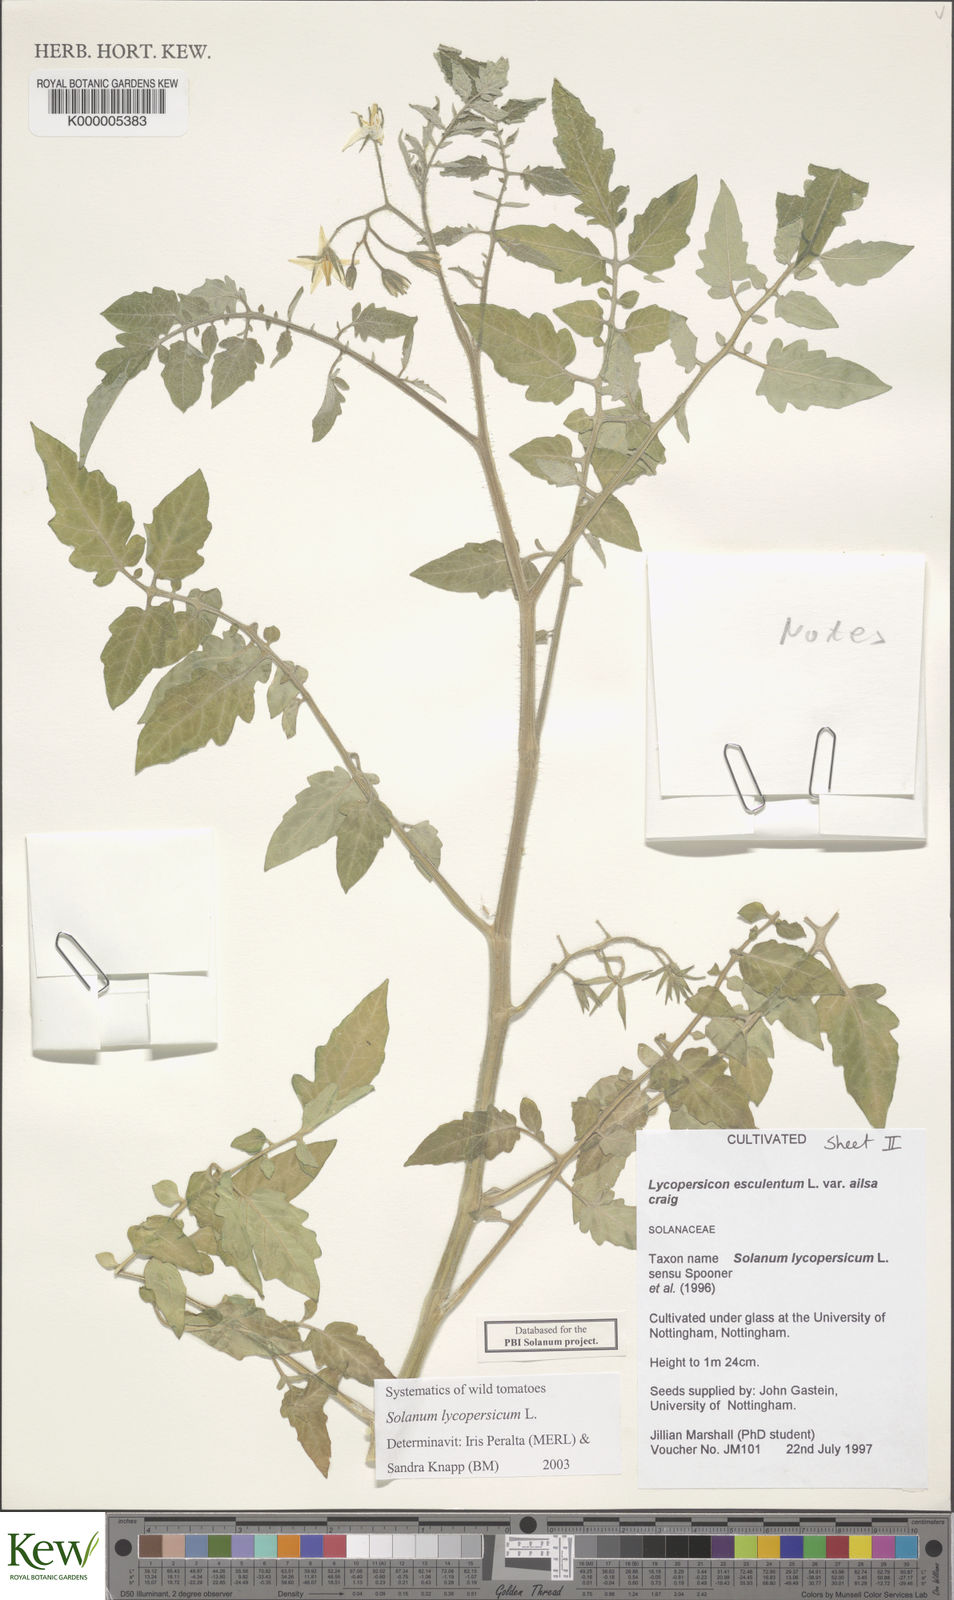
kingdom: Plantae
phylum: Tracheophyta
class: Magnoliopsida
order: Solanales
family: Solanaceae
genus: Solanum
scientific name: Solanum lycopersicum
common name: Garden tomato
